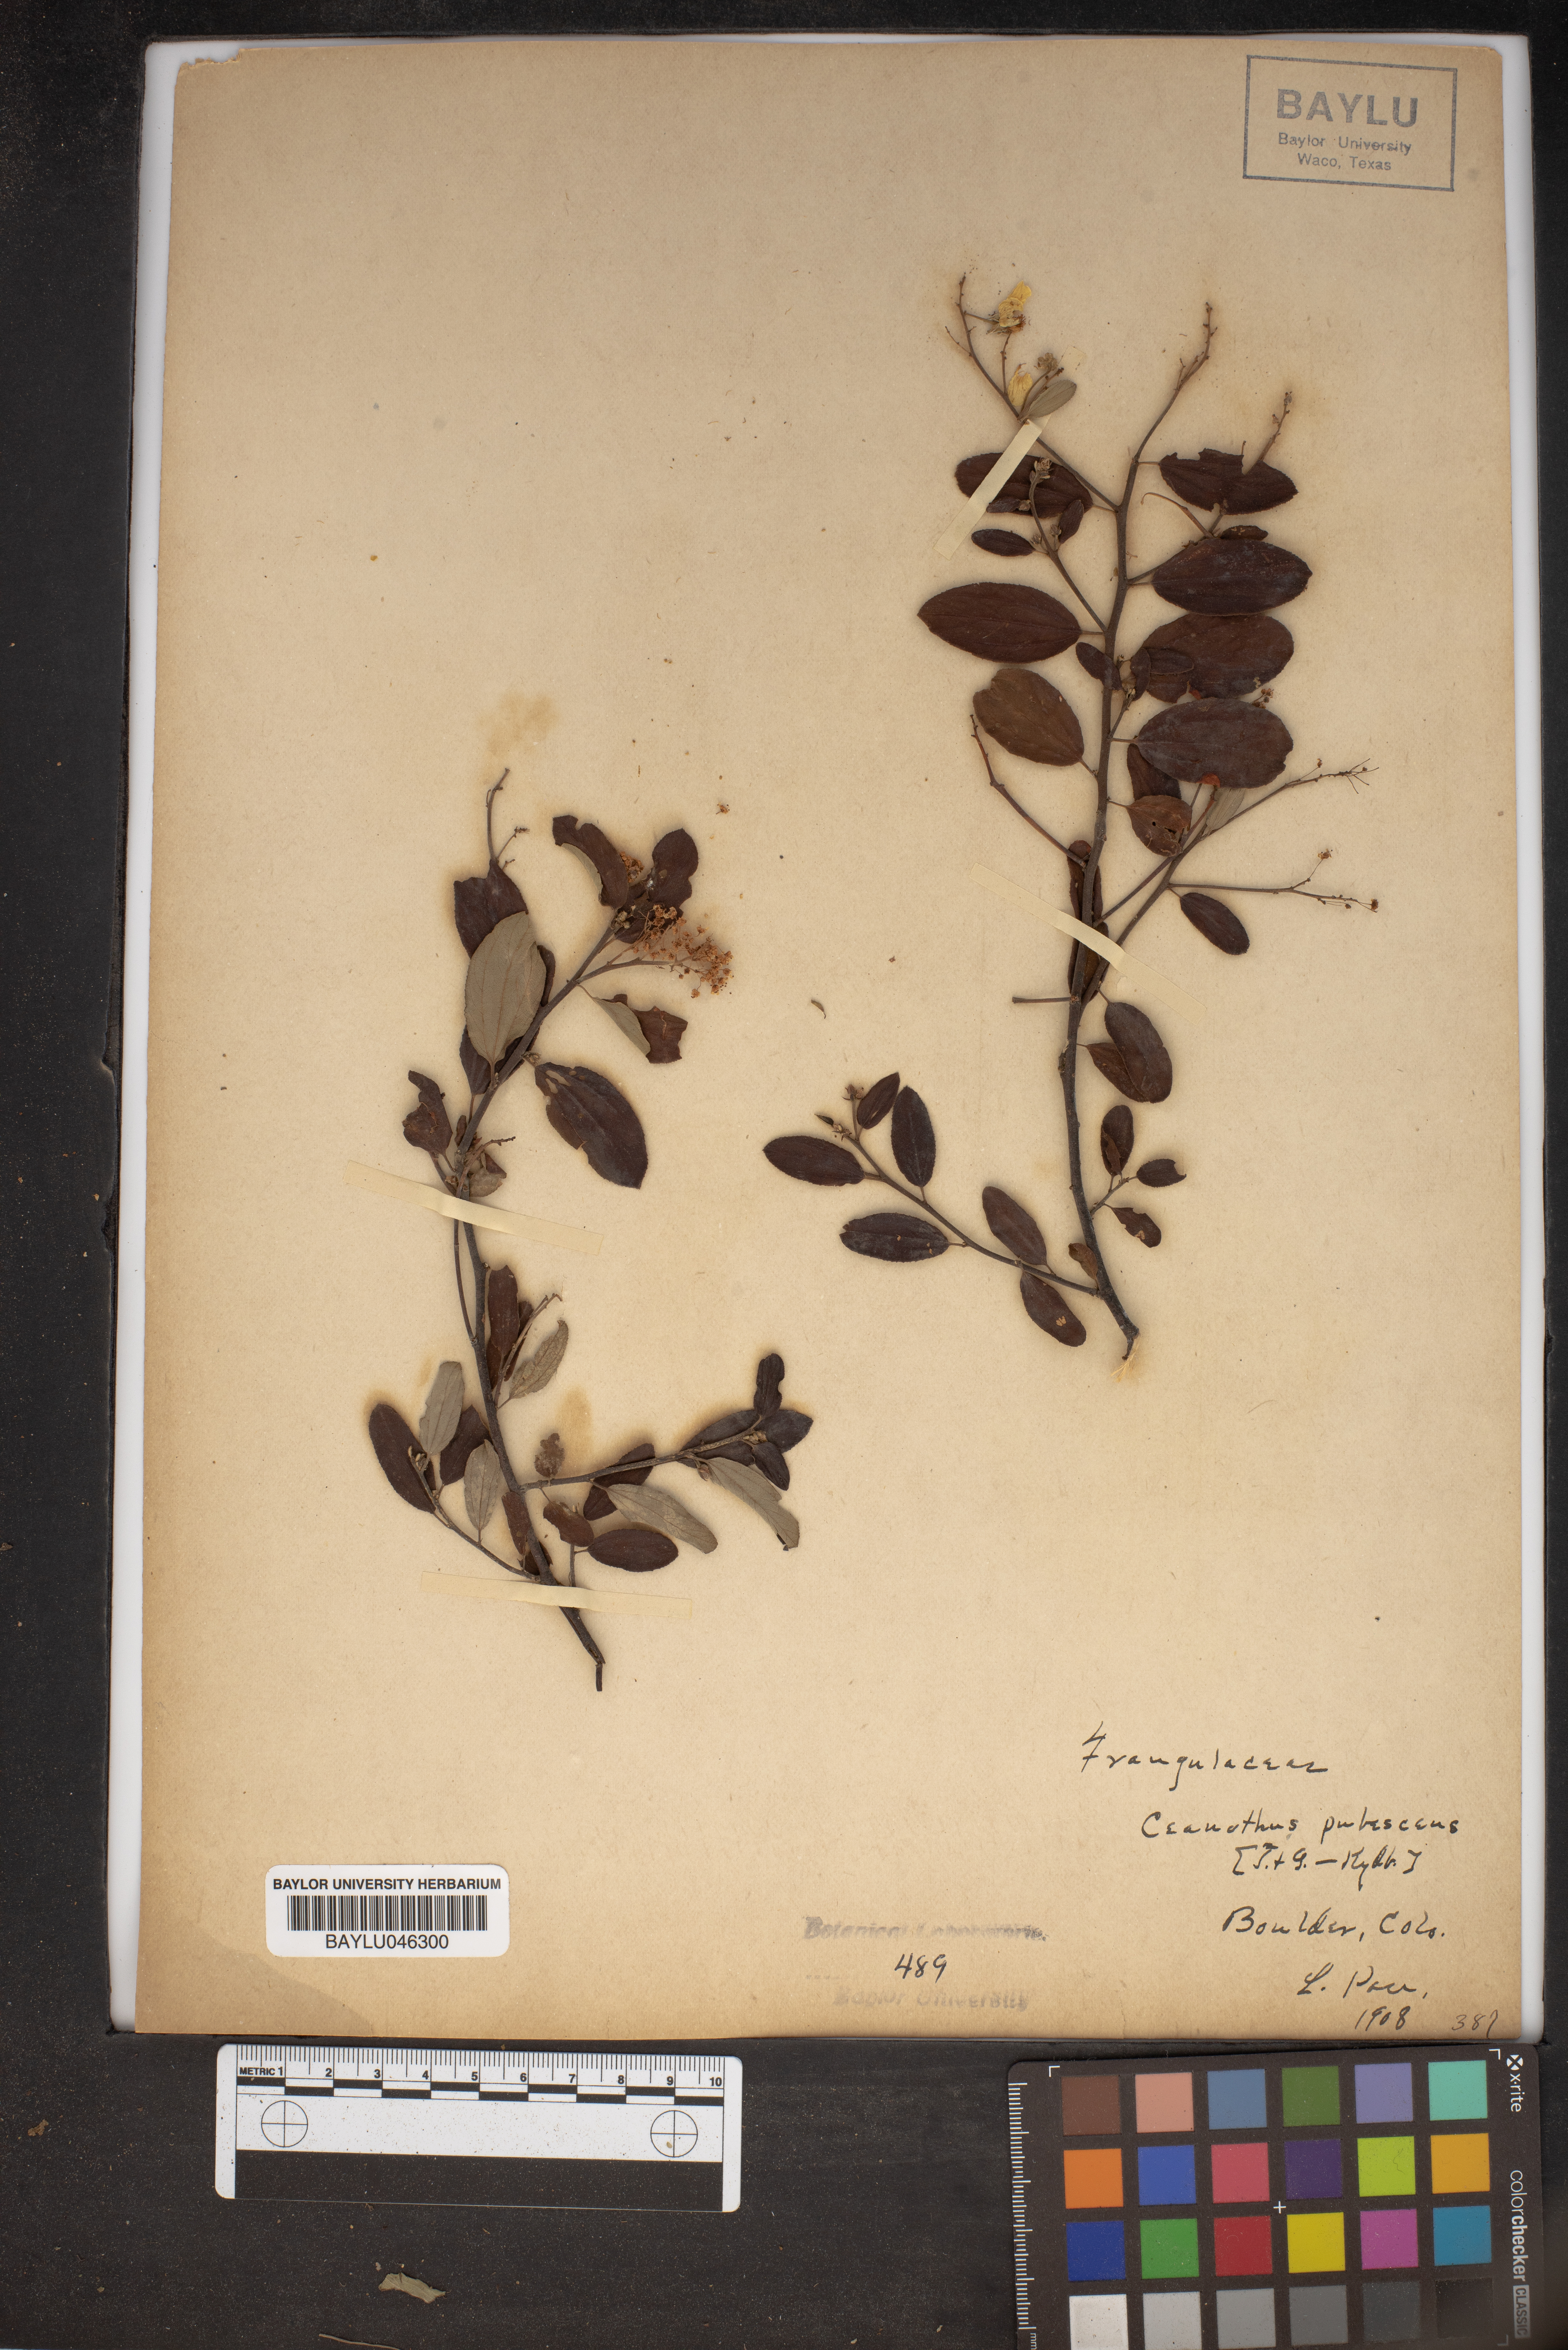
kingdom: Plantae
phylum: Tracheophyta
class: Magnoliopsida
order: Rosales
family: Rhamnaceae
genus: Ceanothus
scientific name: Ceanothus herbaceus
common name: Inland ceanothus
